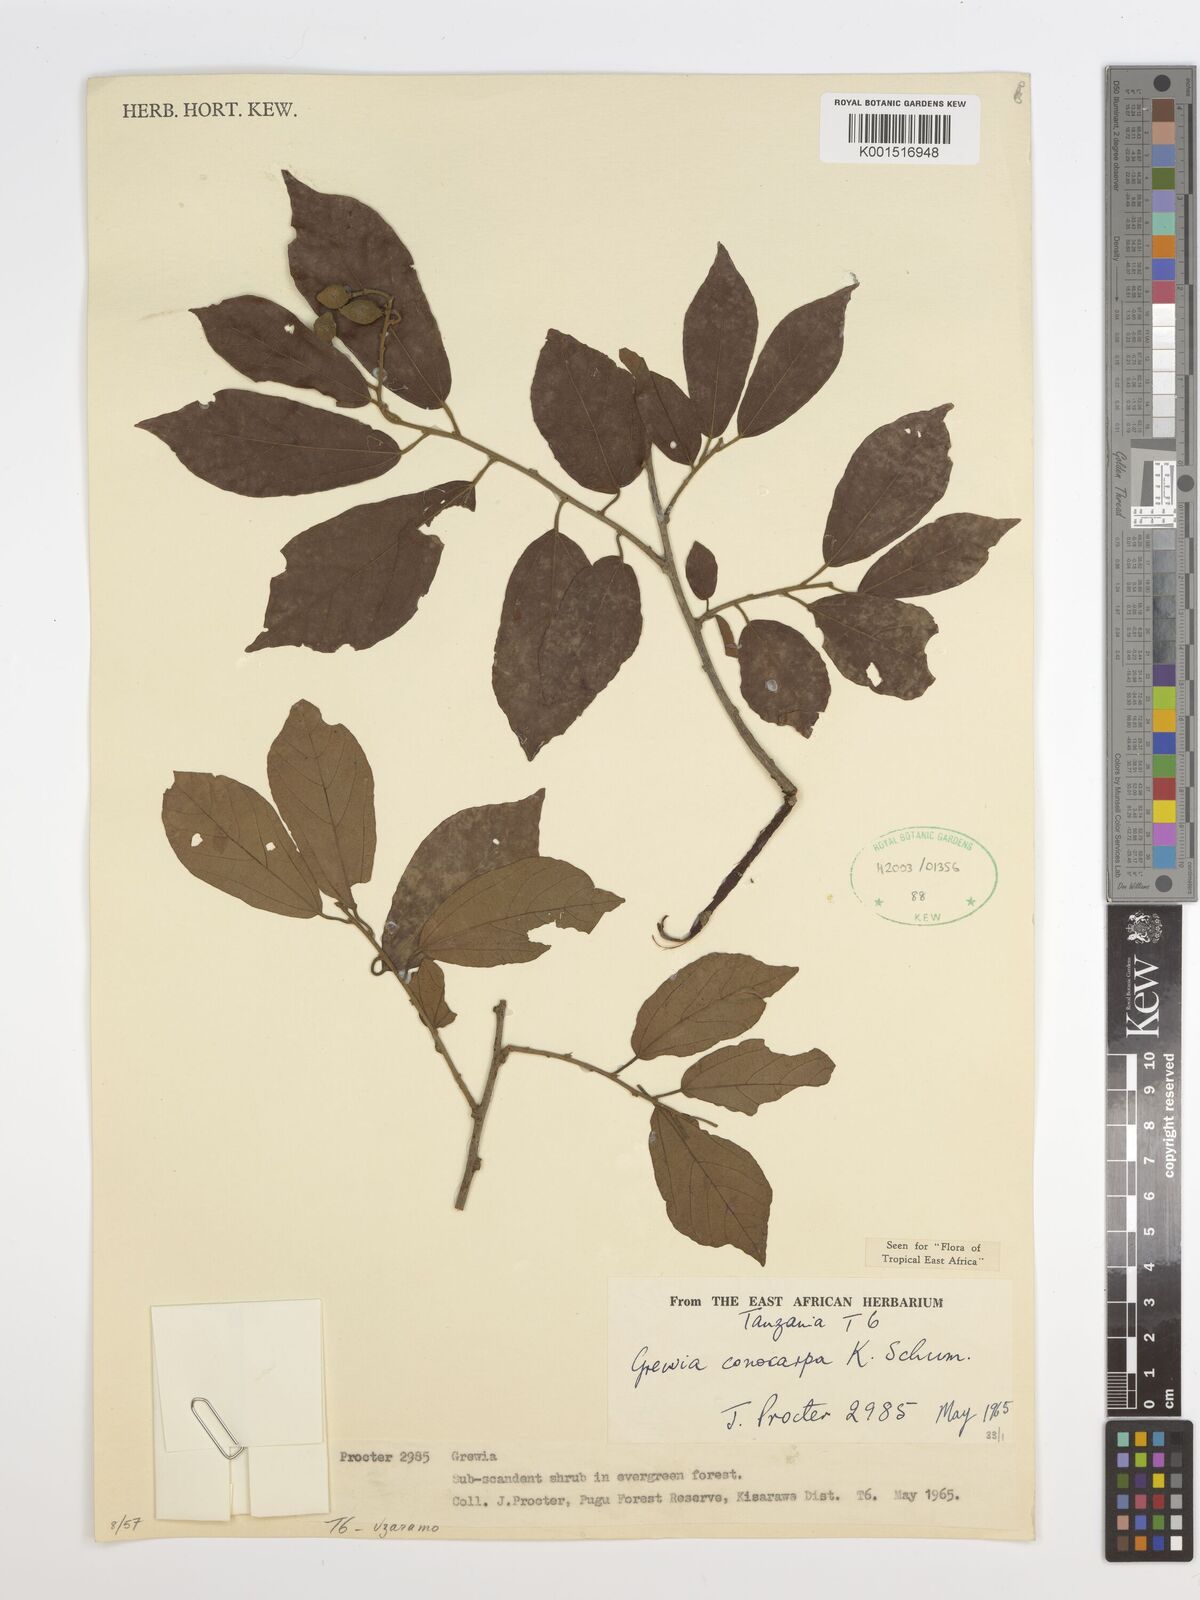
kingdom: Plantae
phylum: Tracheophyta
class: Magnoliopsida
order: Malvales
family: Malvaceae
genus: Microcos
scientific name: Microcos conocarpa
